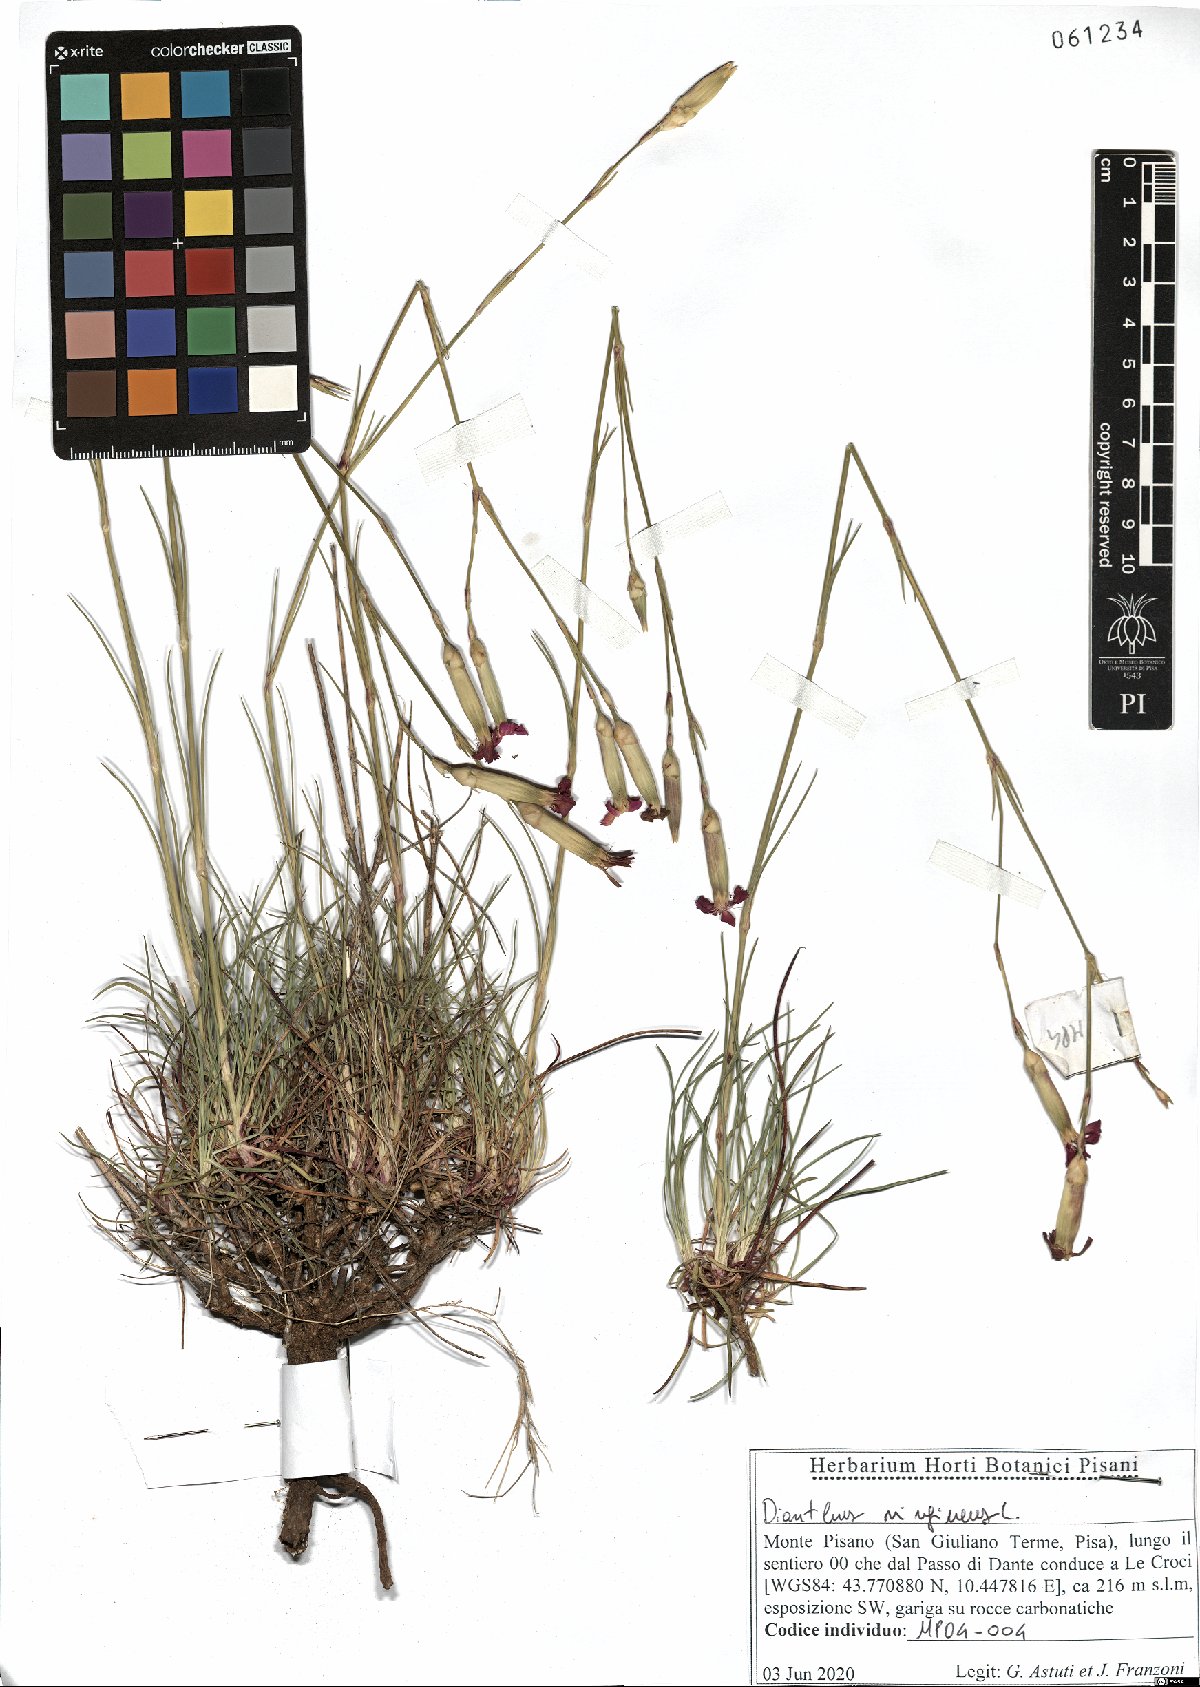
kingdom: Plantae
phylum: Tracheophyta
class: Magnoliopsida
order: Caryophyllales
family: Caryophyllaceae
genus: Dianthus
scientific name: Dianthus virgineus
